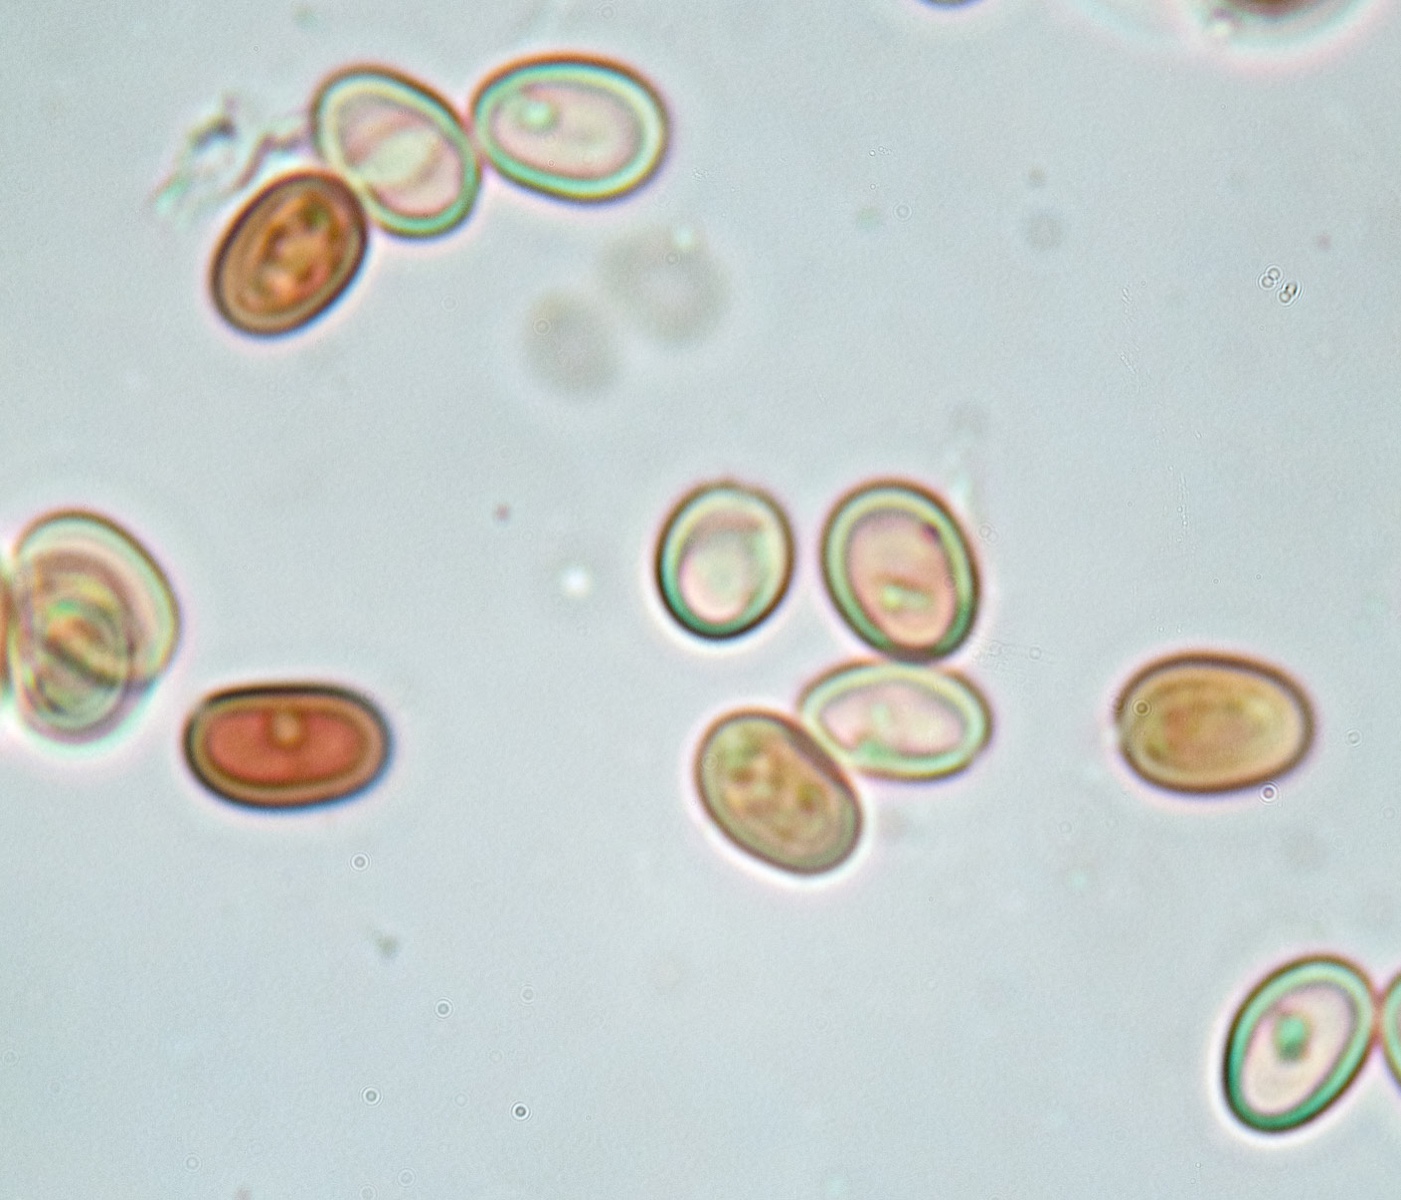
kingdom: Fungi
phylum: Basidiomycota
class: Agaricomycetes
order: Boletales
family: Hygrophoropsidaceae
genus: Hygrophoropsis
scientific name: Hygrophoropsis aurantiaca
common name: almindelig orangekantarel
